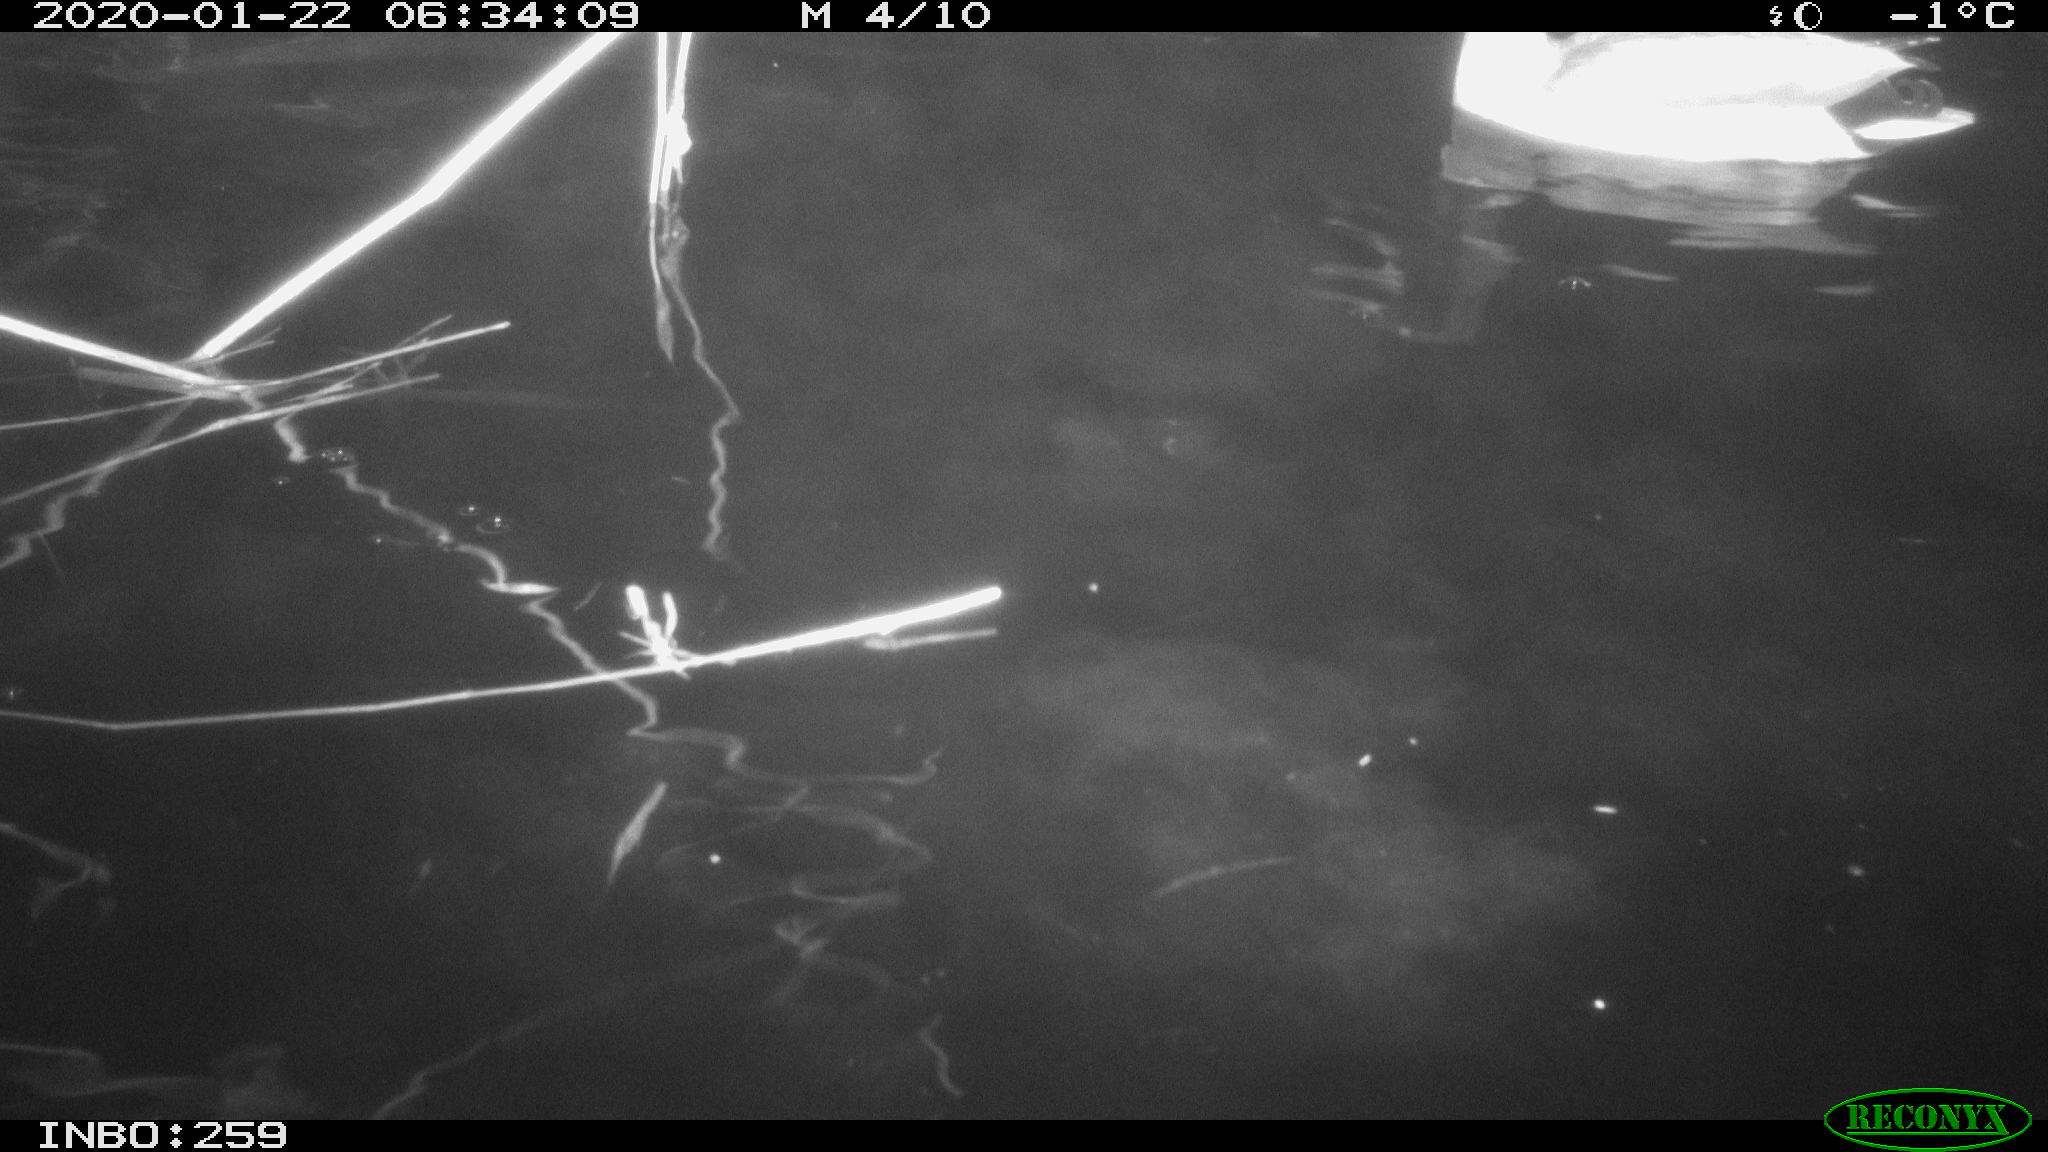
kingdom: Animalia
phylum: Chordata
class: Aves
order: Anseriformes
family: Anatidae
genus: Anas
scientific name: Anas platyrhynchos
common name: Mallard
